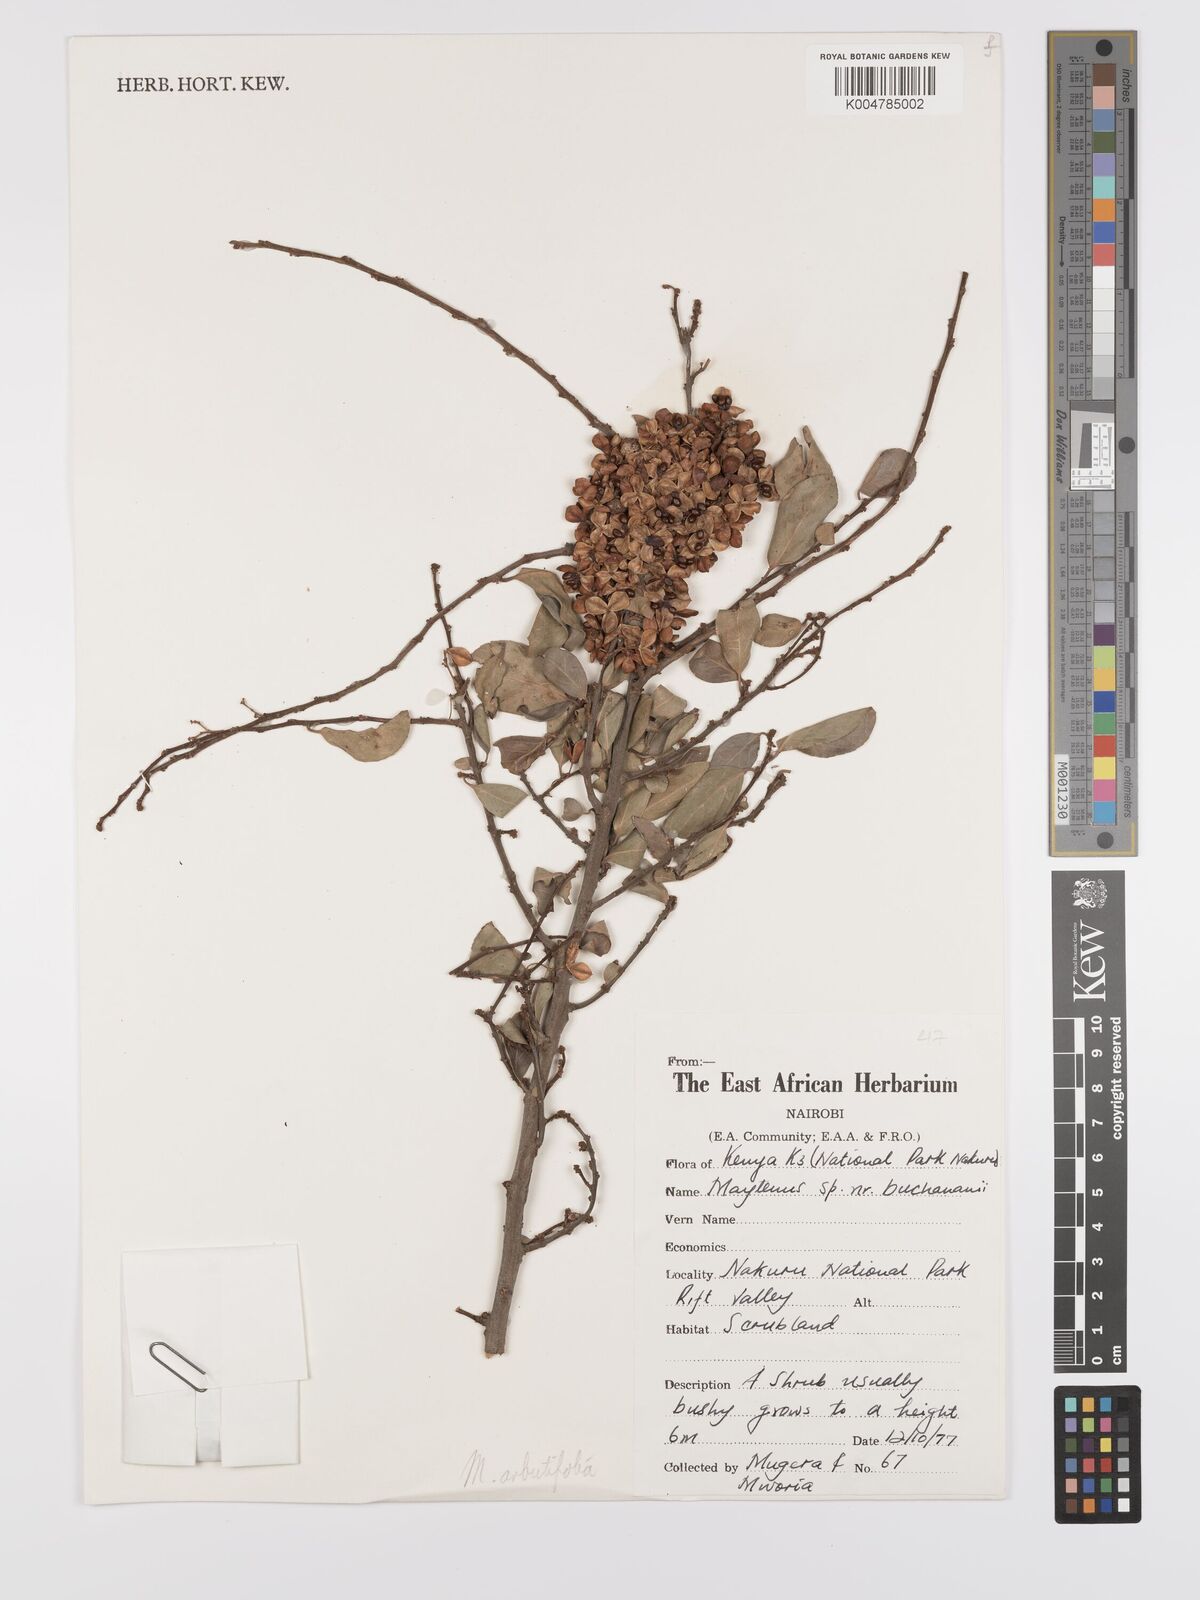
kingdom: Plantae
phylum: Tracheophyta
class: Magnoliopsida
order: Celastrales
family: Celastraceae
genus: Gymnosporia
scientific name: Gymnosporia arbutifolia
